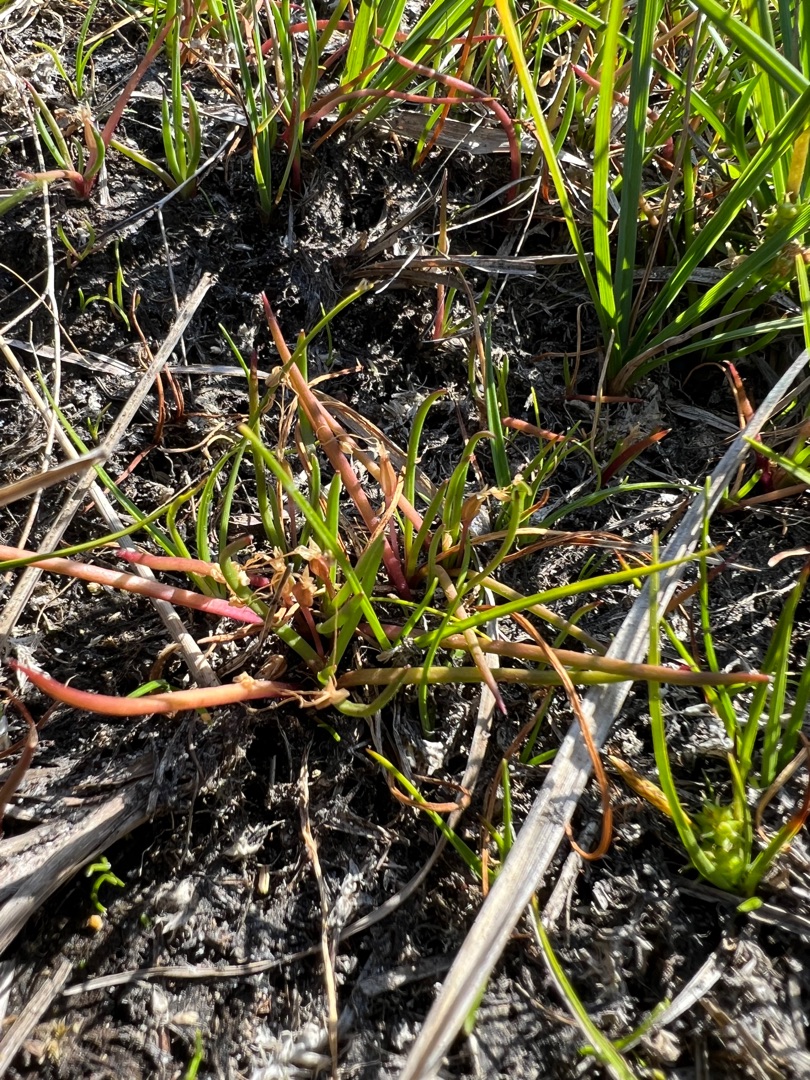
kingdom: Plantae
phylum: Tracheophyta
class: Magnoliopsida
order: Lamiales
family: Plantaginaceae
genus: Littorella
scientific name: Littorella uniflora
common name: Strandbo
